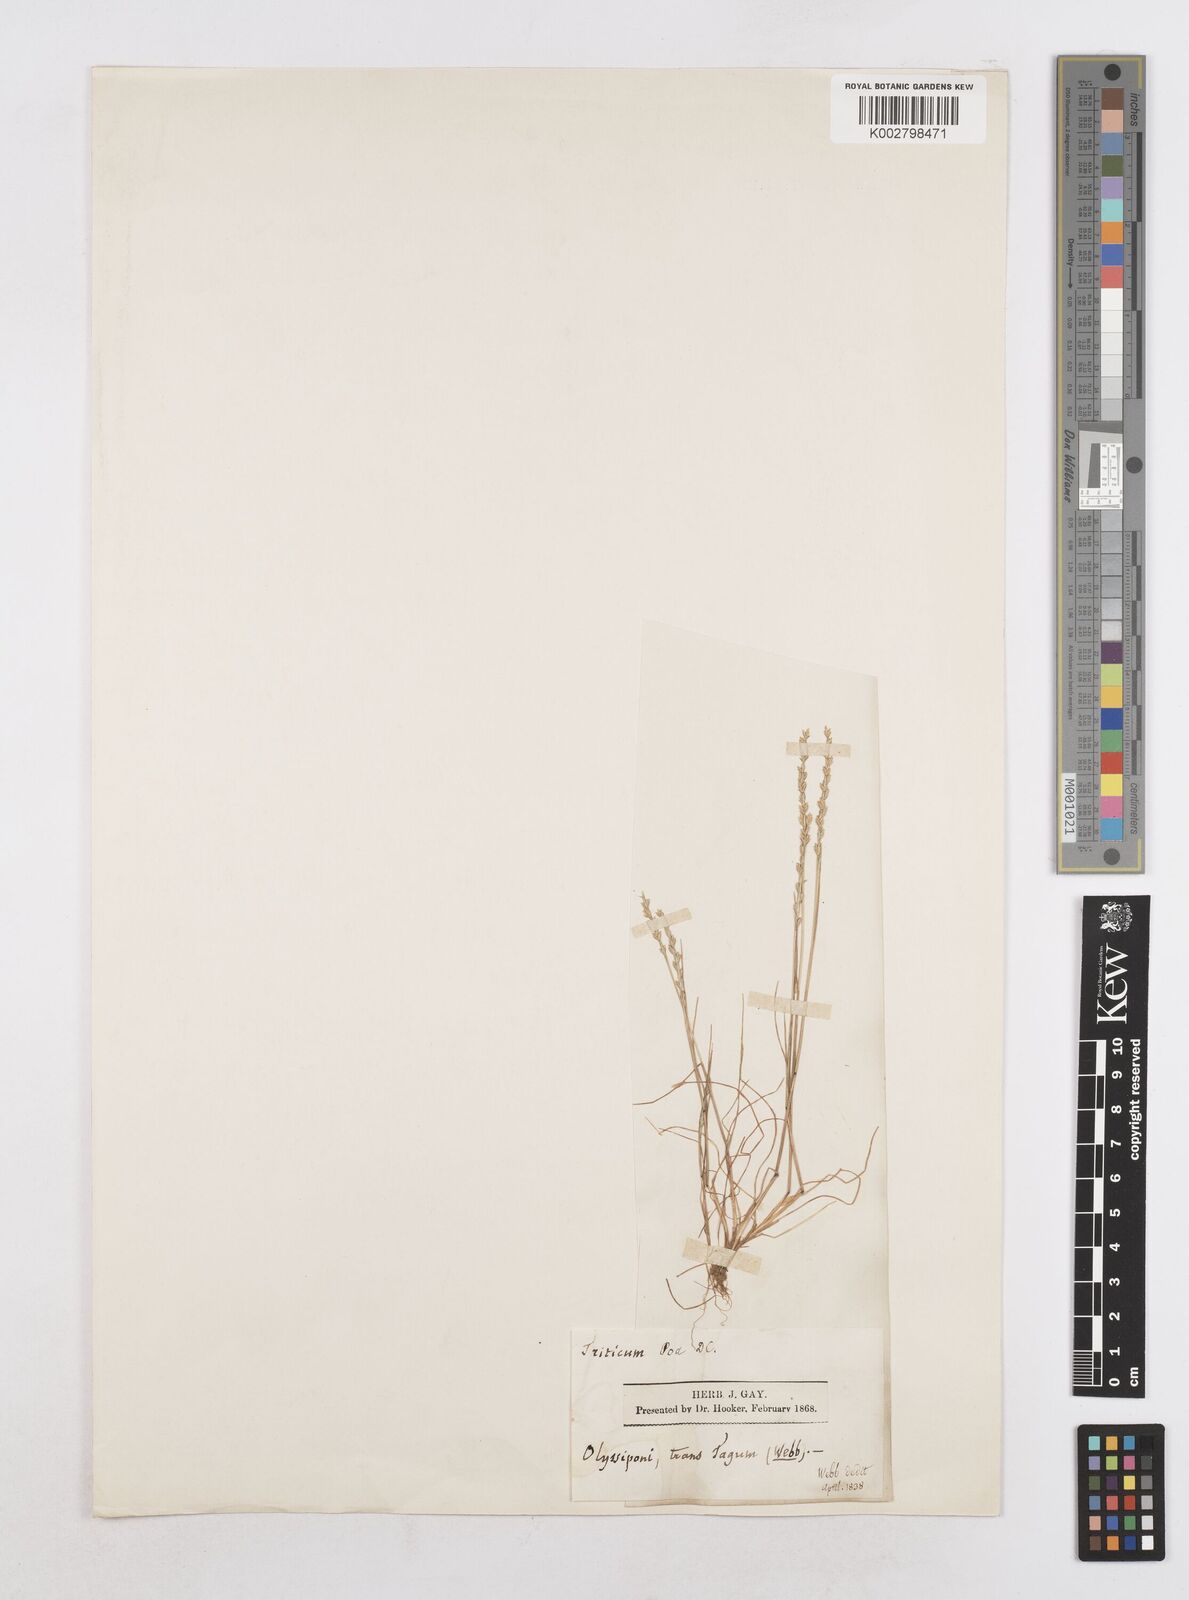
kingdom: Plantae
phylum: Tracheophyta
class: Liliopsida
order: Poales
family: Poaceae
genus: Festuca
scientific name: Festuca lachenalii
